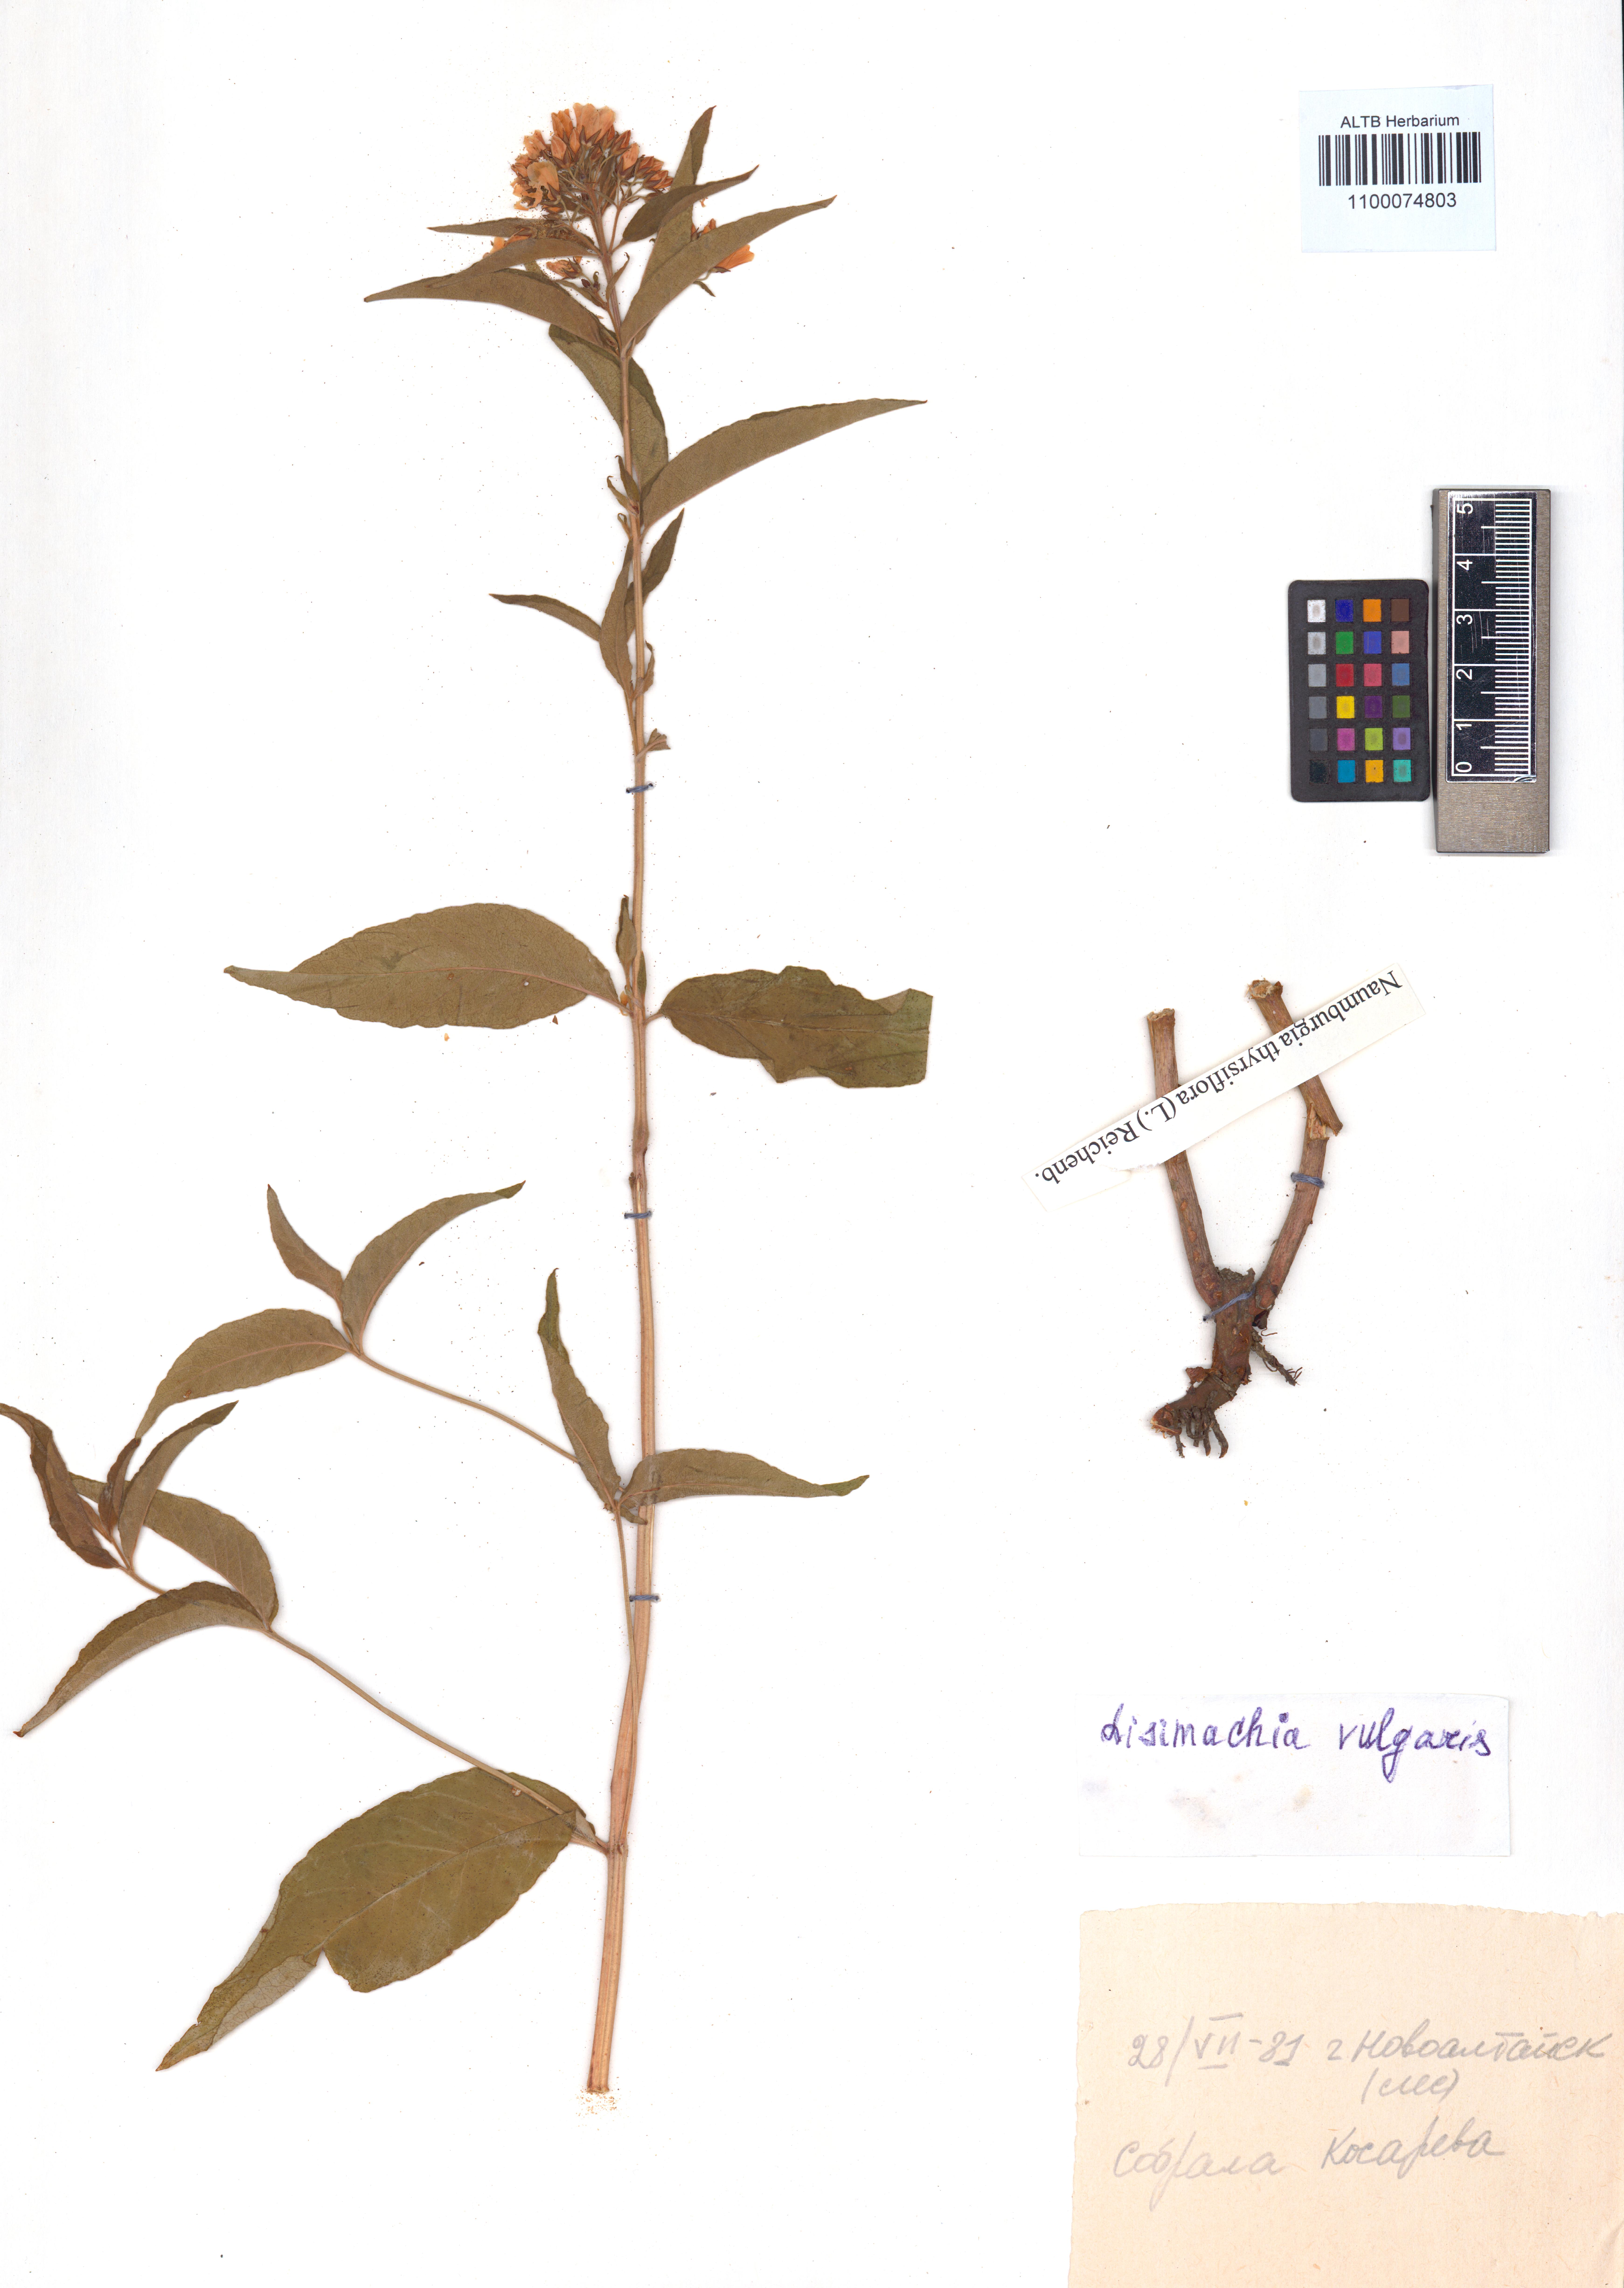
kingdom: Plantae
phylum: Tracheophyta
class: Magnoliopsida
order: Ericales
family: Primulaceae
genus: Lysimachia
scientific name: Lysimachia vulgaris
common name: Yellow loosestrife
